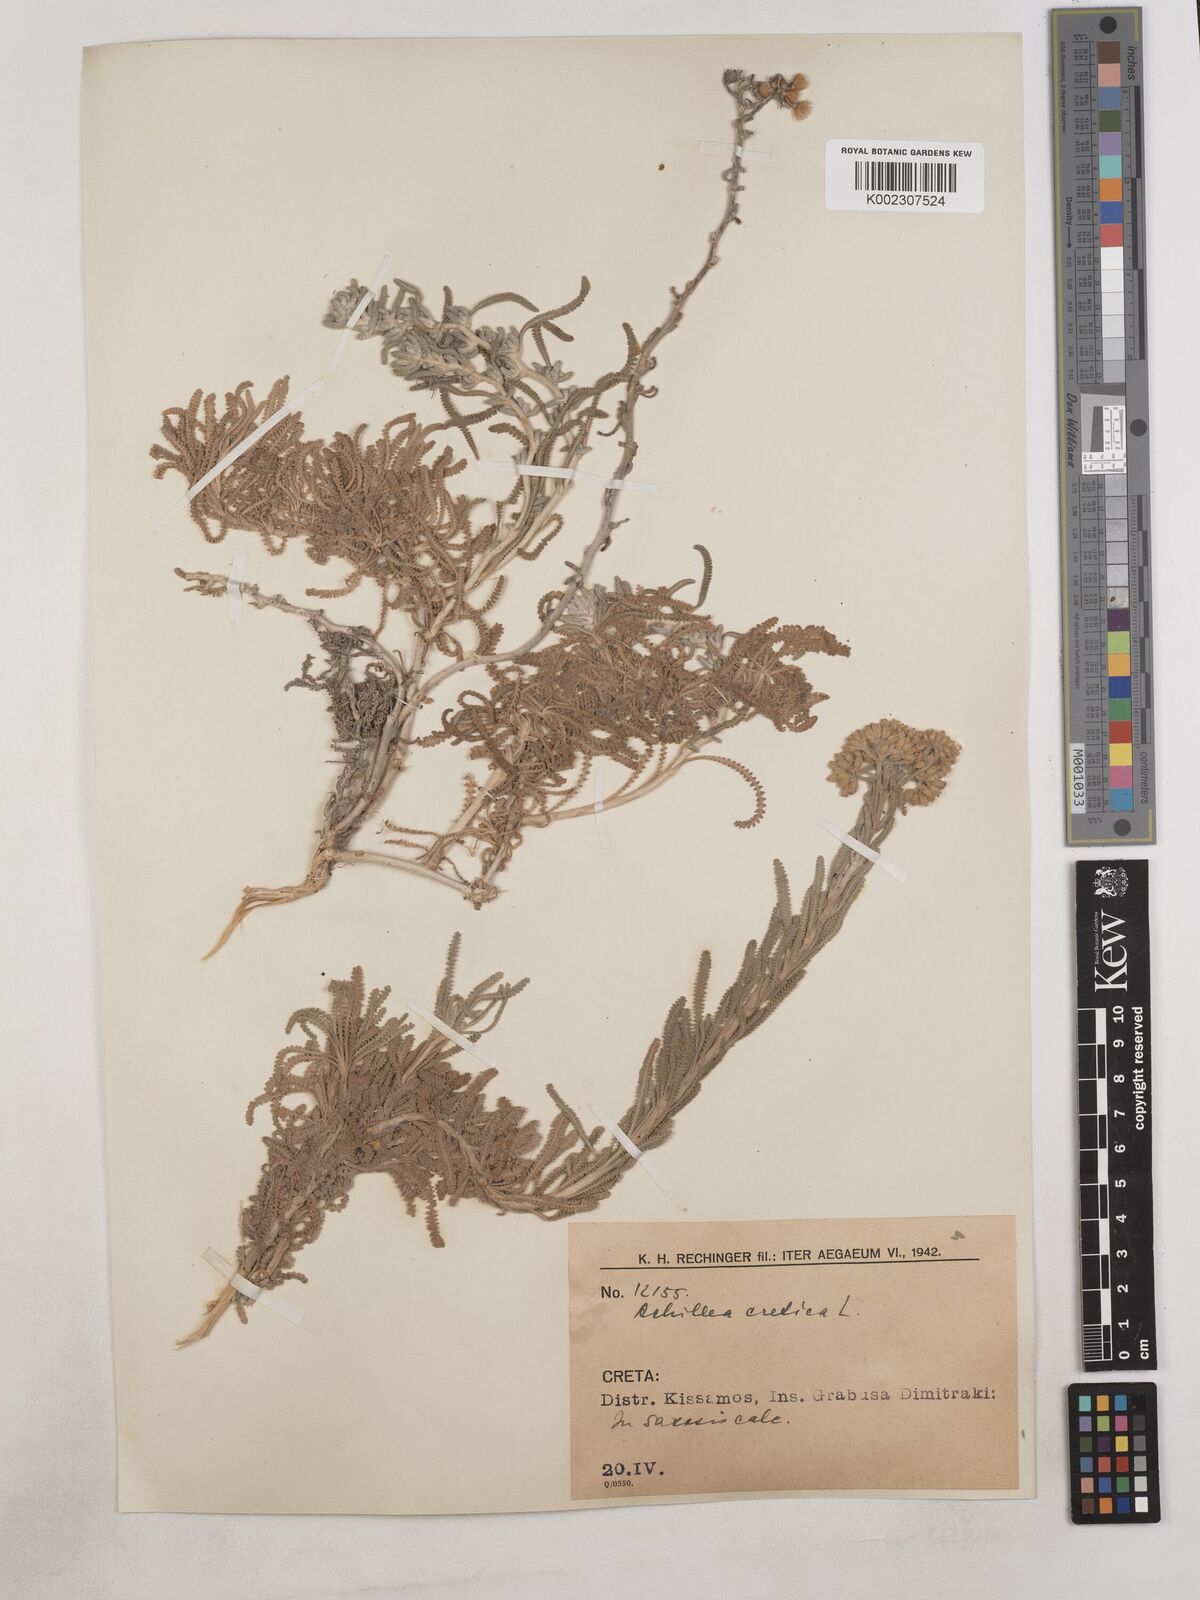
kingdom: Plantae
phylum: Tracheophyta
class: Magnoliopsida
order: Asterales
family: Asteraceae
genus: Achillea
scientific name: Achillea cretica
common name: Chamomile-leaved lavender-cotton
